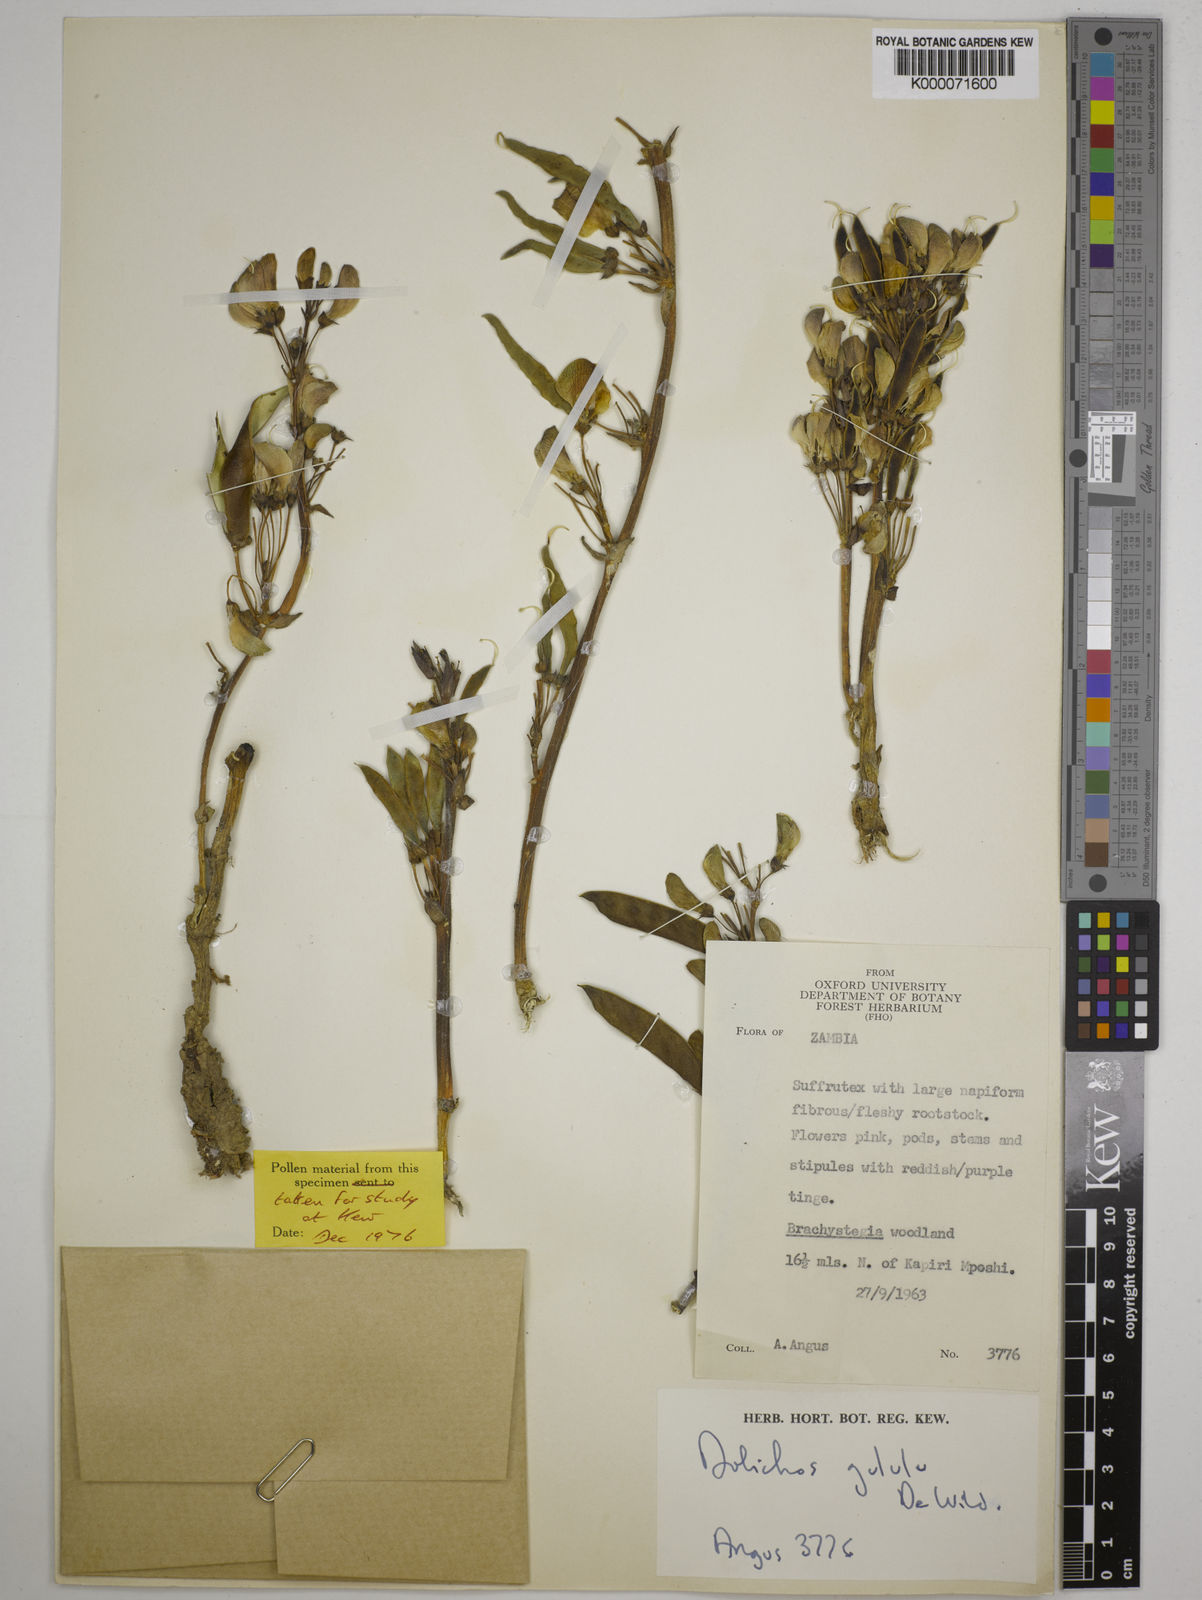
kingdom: Plantae
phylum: Tracheophyta
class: Magnoliopsida
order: Fabales
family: Fabaceae
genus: Dolichos
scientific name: Dolichos gululu
